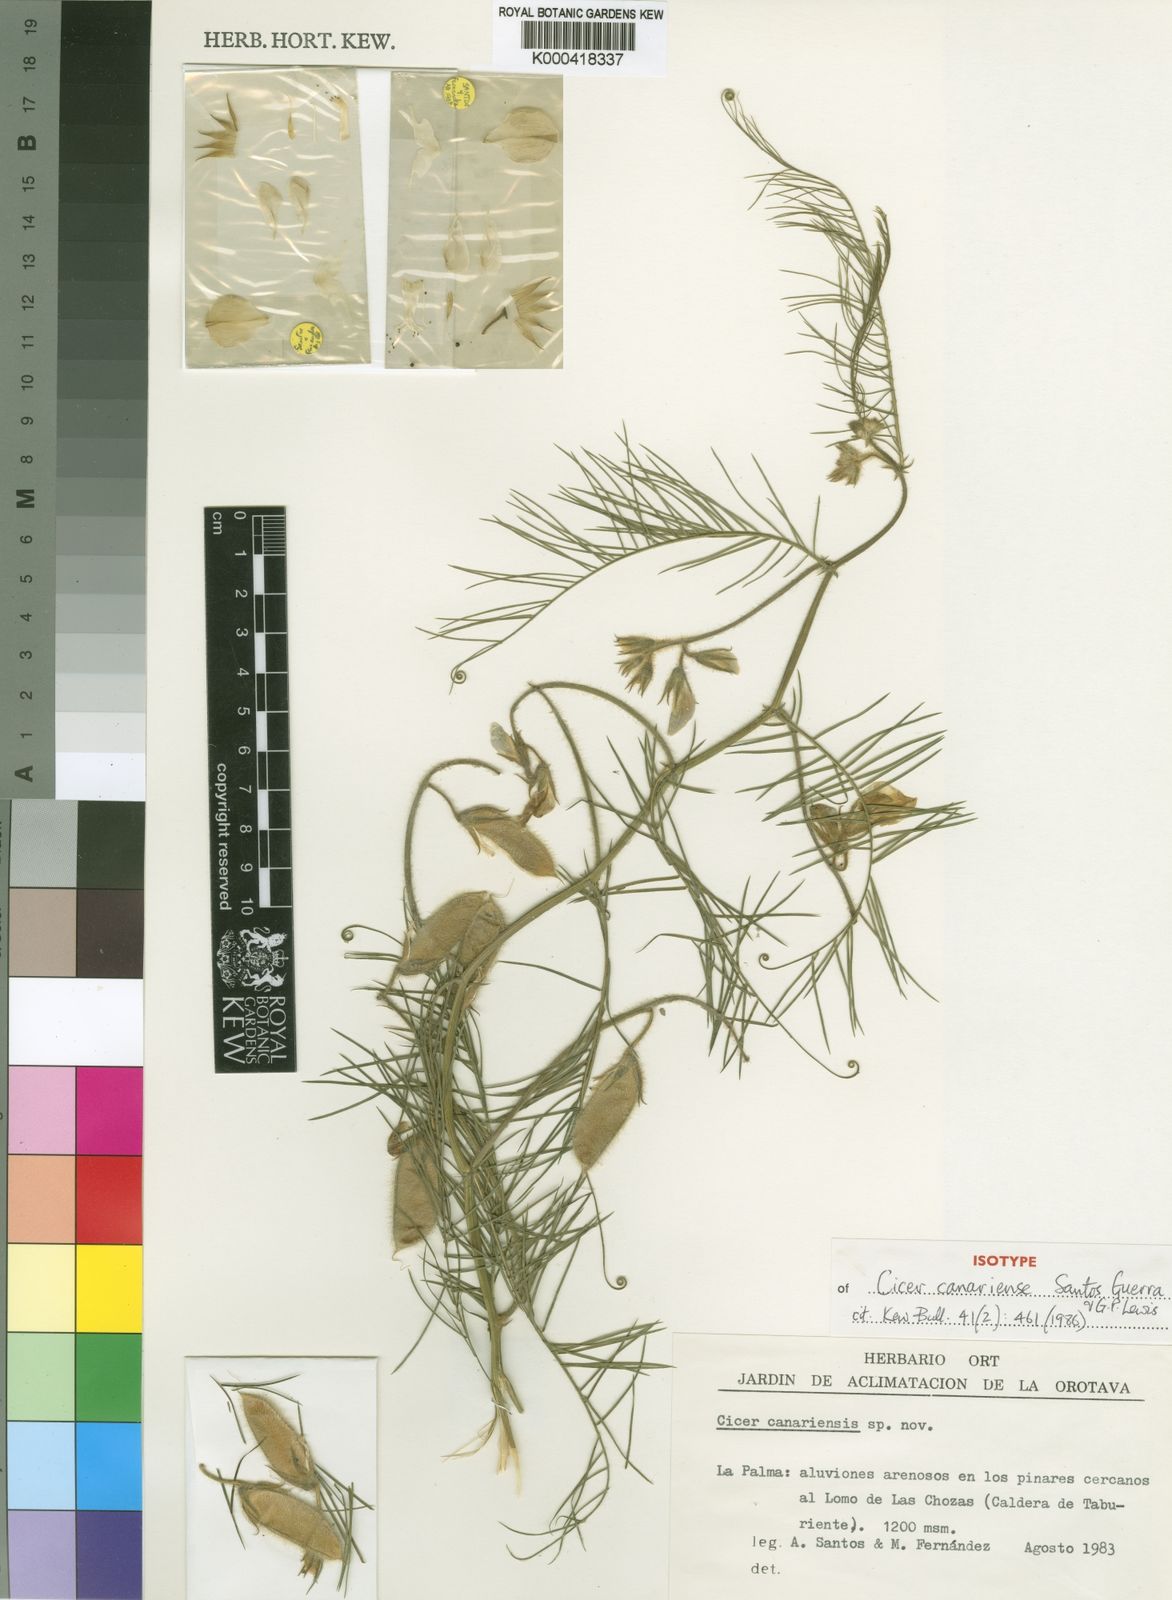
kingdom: Plantae
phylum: Tracheophyta
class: Magnoliopsida
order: Fabales
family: Fabaceae
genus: Cicer
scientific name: Cicer canariense
